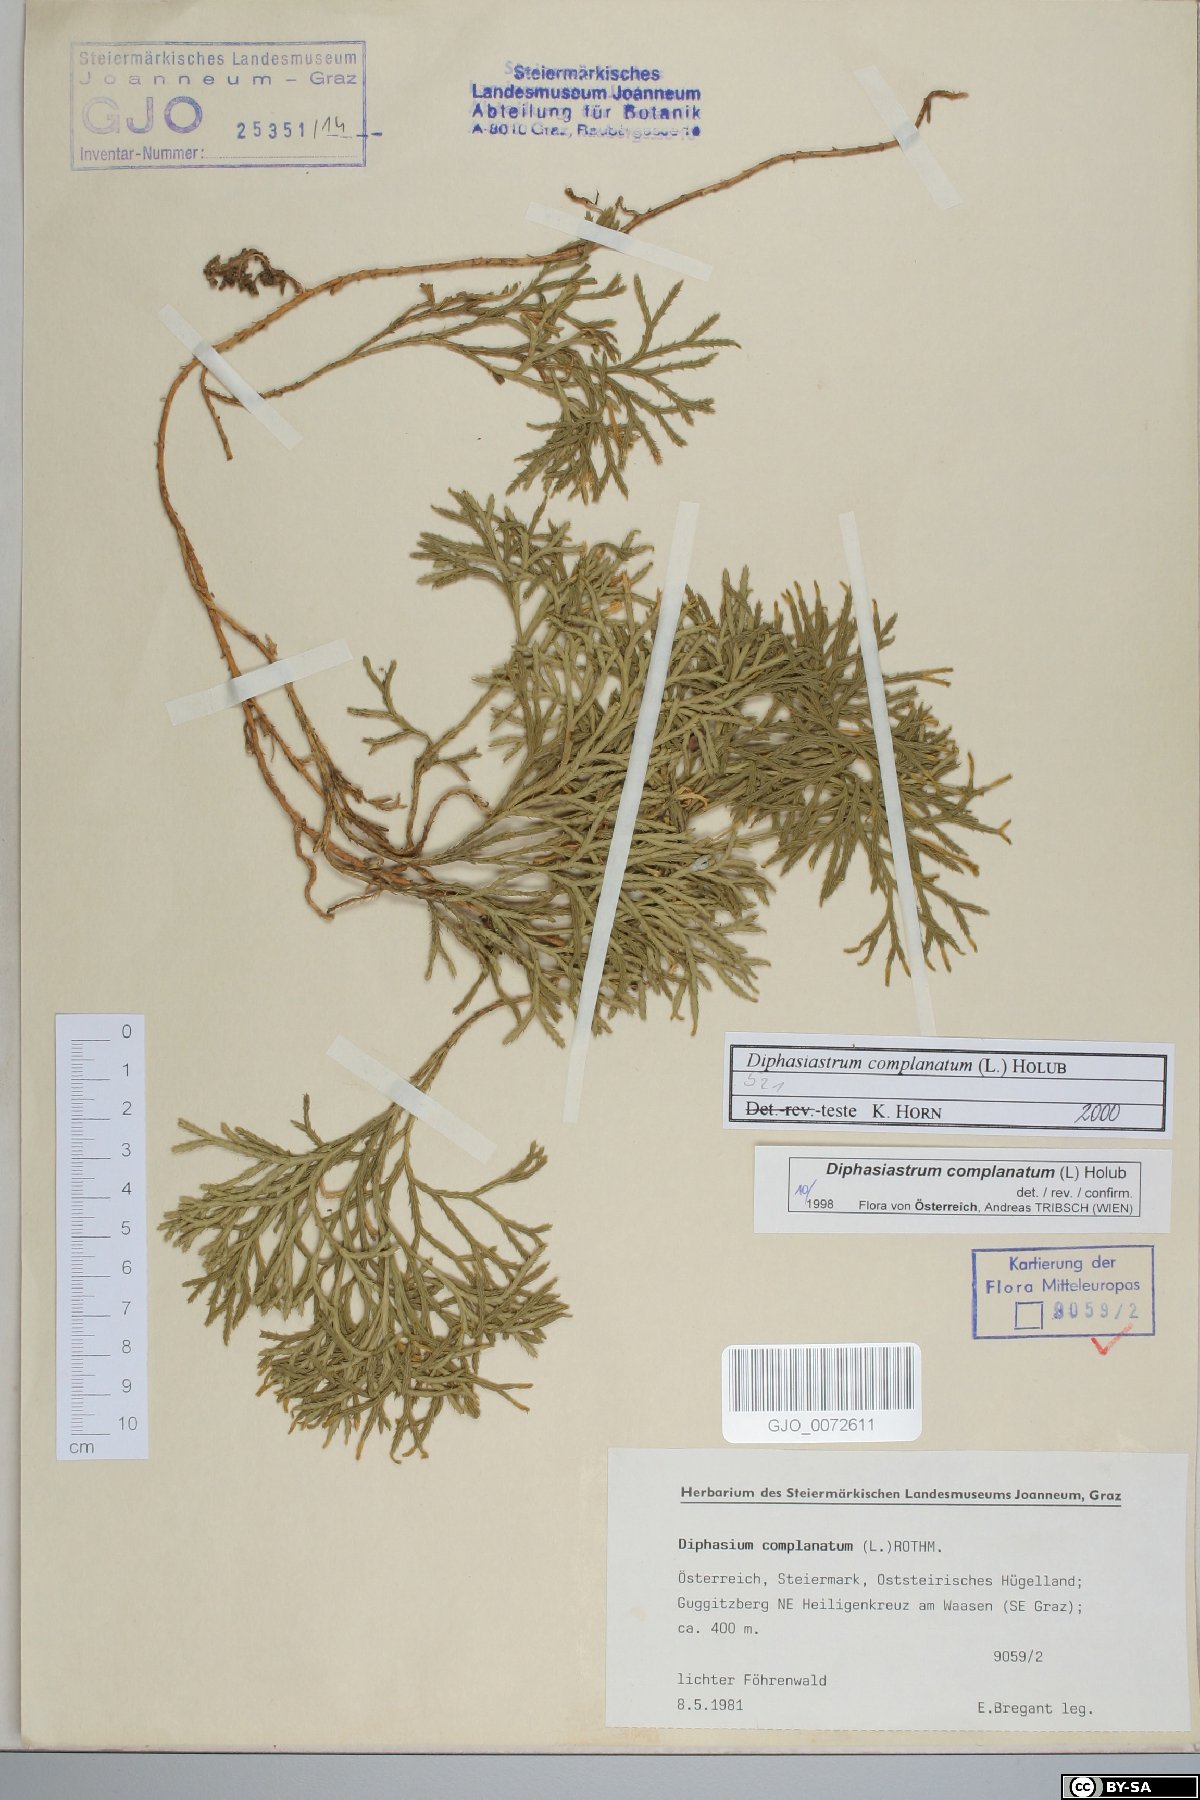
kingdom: Plantae
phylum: Tracheophyta
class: Lycopodiopsida
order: Lycopodiales
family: Lycopodiaceae
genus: Diphasiastrum
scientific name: Diphasiastrum complanatum
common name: Northern running-pine
